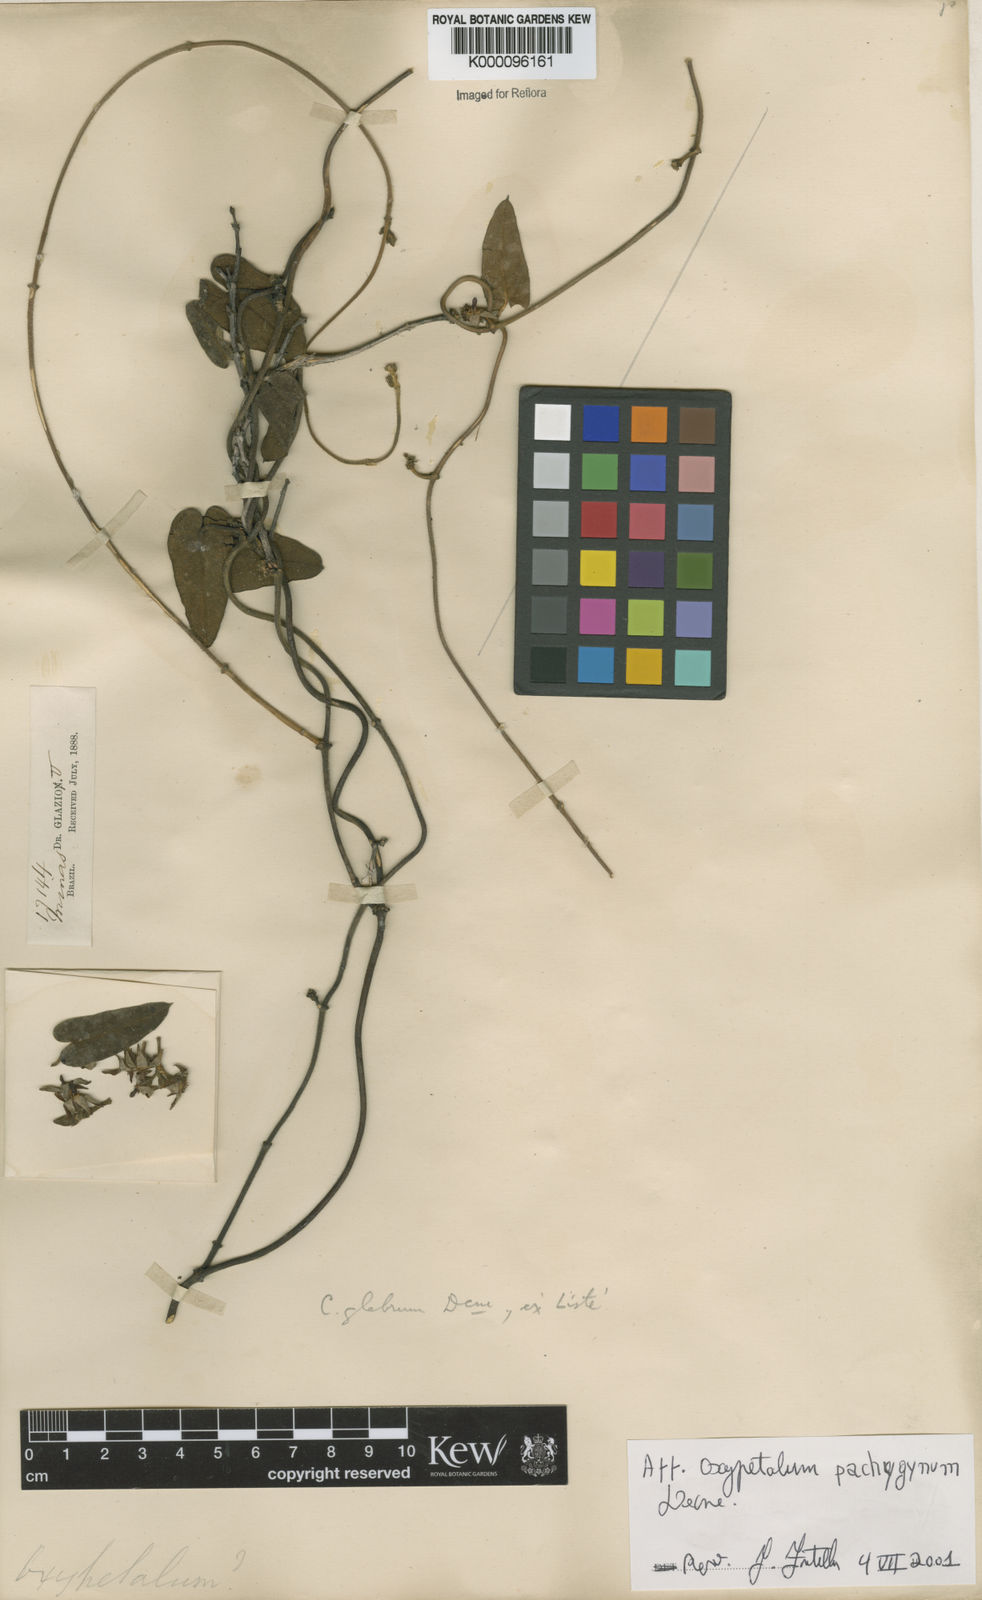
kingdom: Plantae
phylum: Tracheophyta
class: Magnoliopsida
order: Gentianales
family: Apocynaceae
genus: Oxypetalum
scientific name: Oxypetalum pachyglossum
